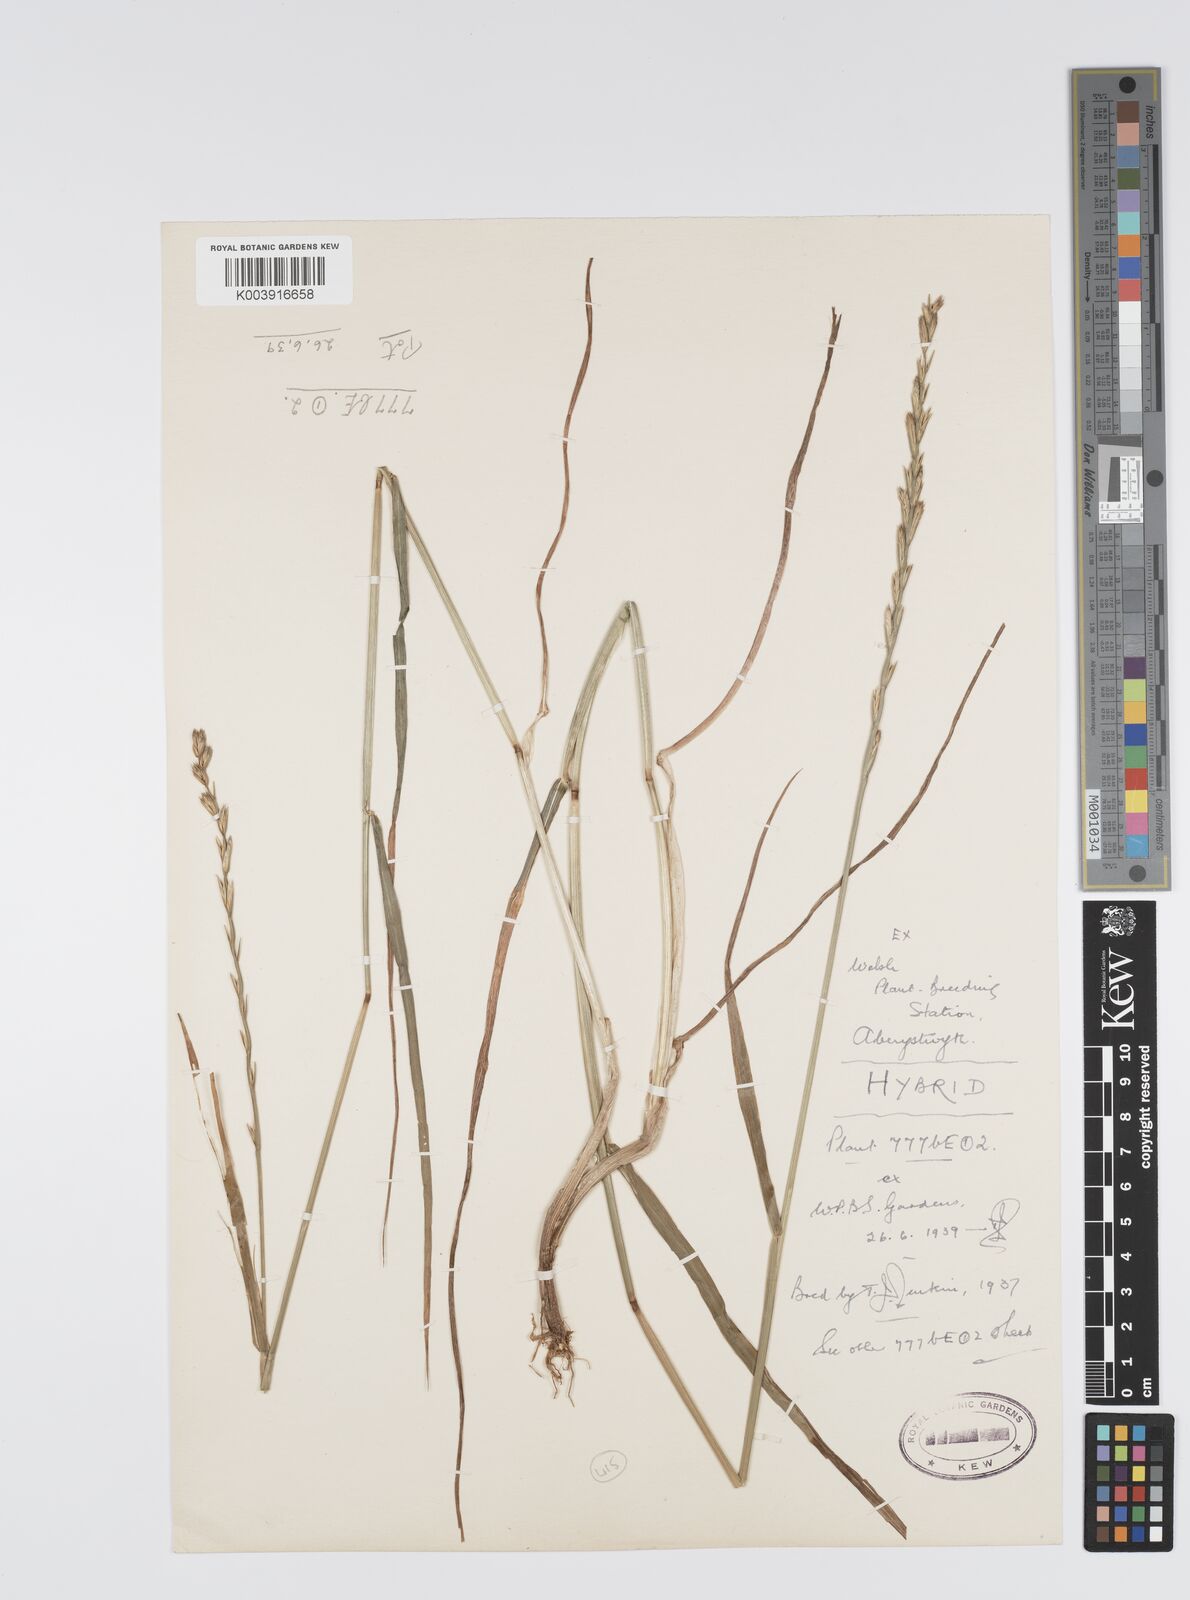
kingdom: Plantae
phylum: Tracheophyta
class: Liliopsida
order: Poales
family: Poaceae
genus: Lolium
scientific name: Lolium perenne
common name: Perennial ryegrass
